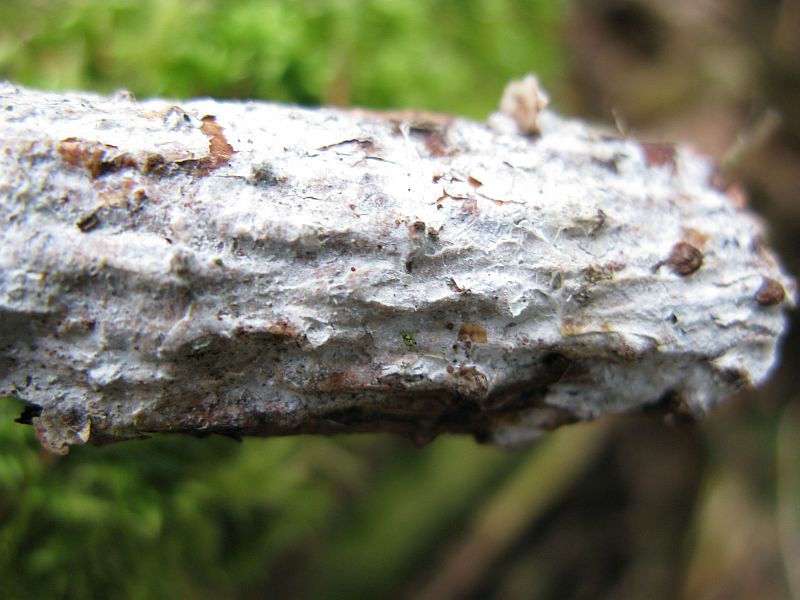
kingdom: Fungi
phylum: Basidiomycota
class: Agaricomycetes
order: Hymenochaetales
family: Rickenellaceae
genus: Resinicium
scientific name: Resinicium bicolor
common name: almindelig vokstand
